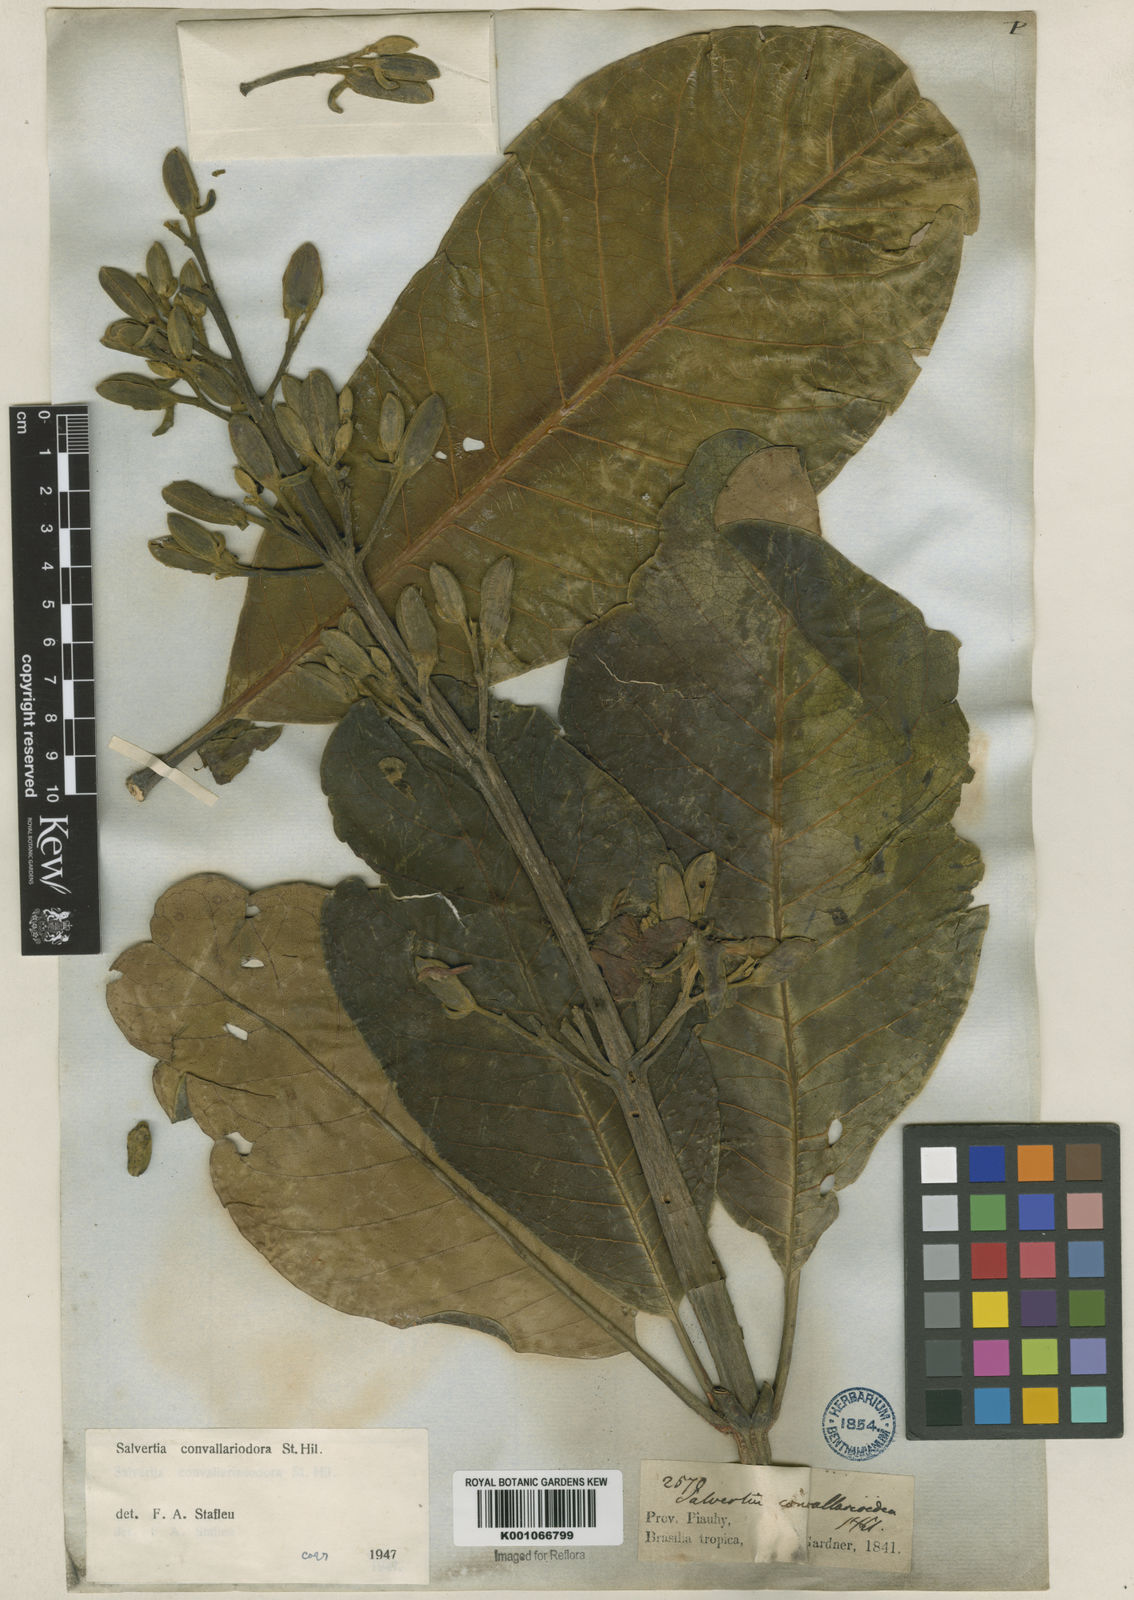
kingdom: Plantae
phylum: Tracheophyta
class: Magnoliopsida
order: Myrtales
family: Vochysiaceae
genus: Salvertia
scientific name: Salvertia convallariodora
